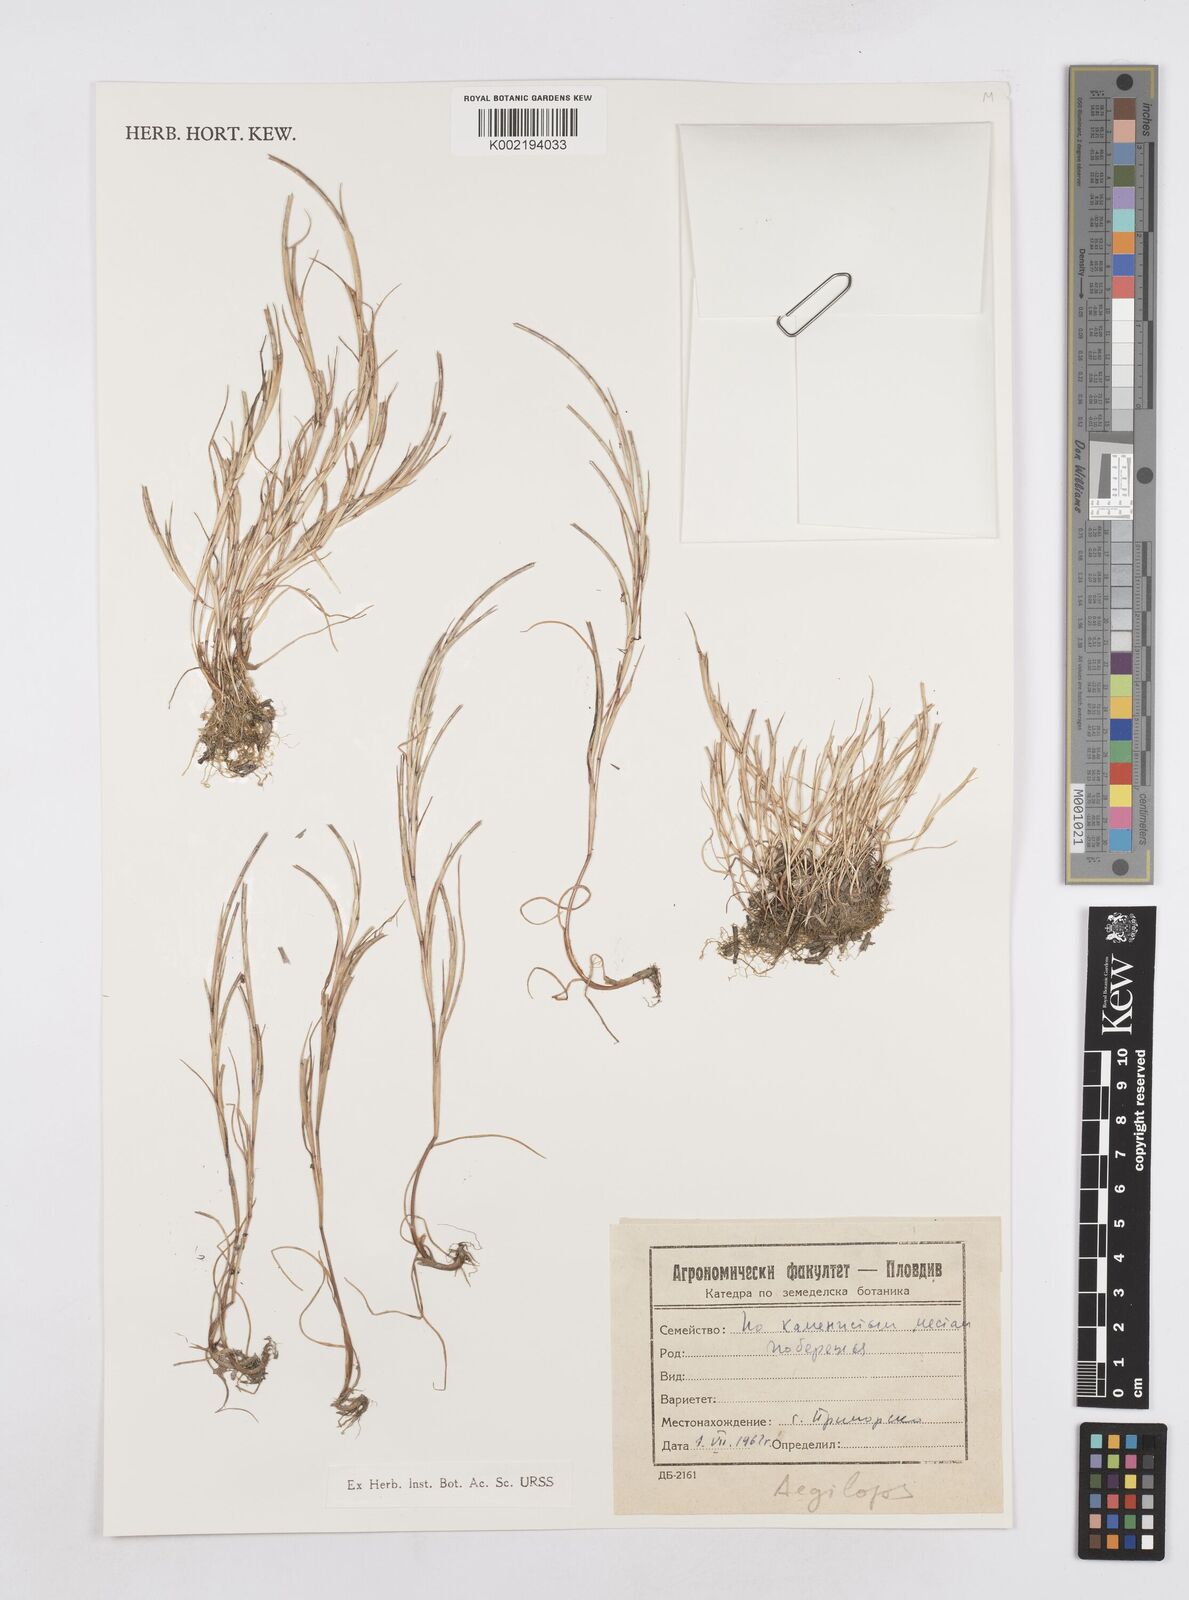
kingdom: Plantae
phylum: Tracheophyta
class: Liliopsida
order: Poales
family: Poaceae
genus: Parapholis
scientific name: Parapholis incurva
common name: Curved sicklegrass
